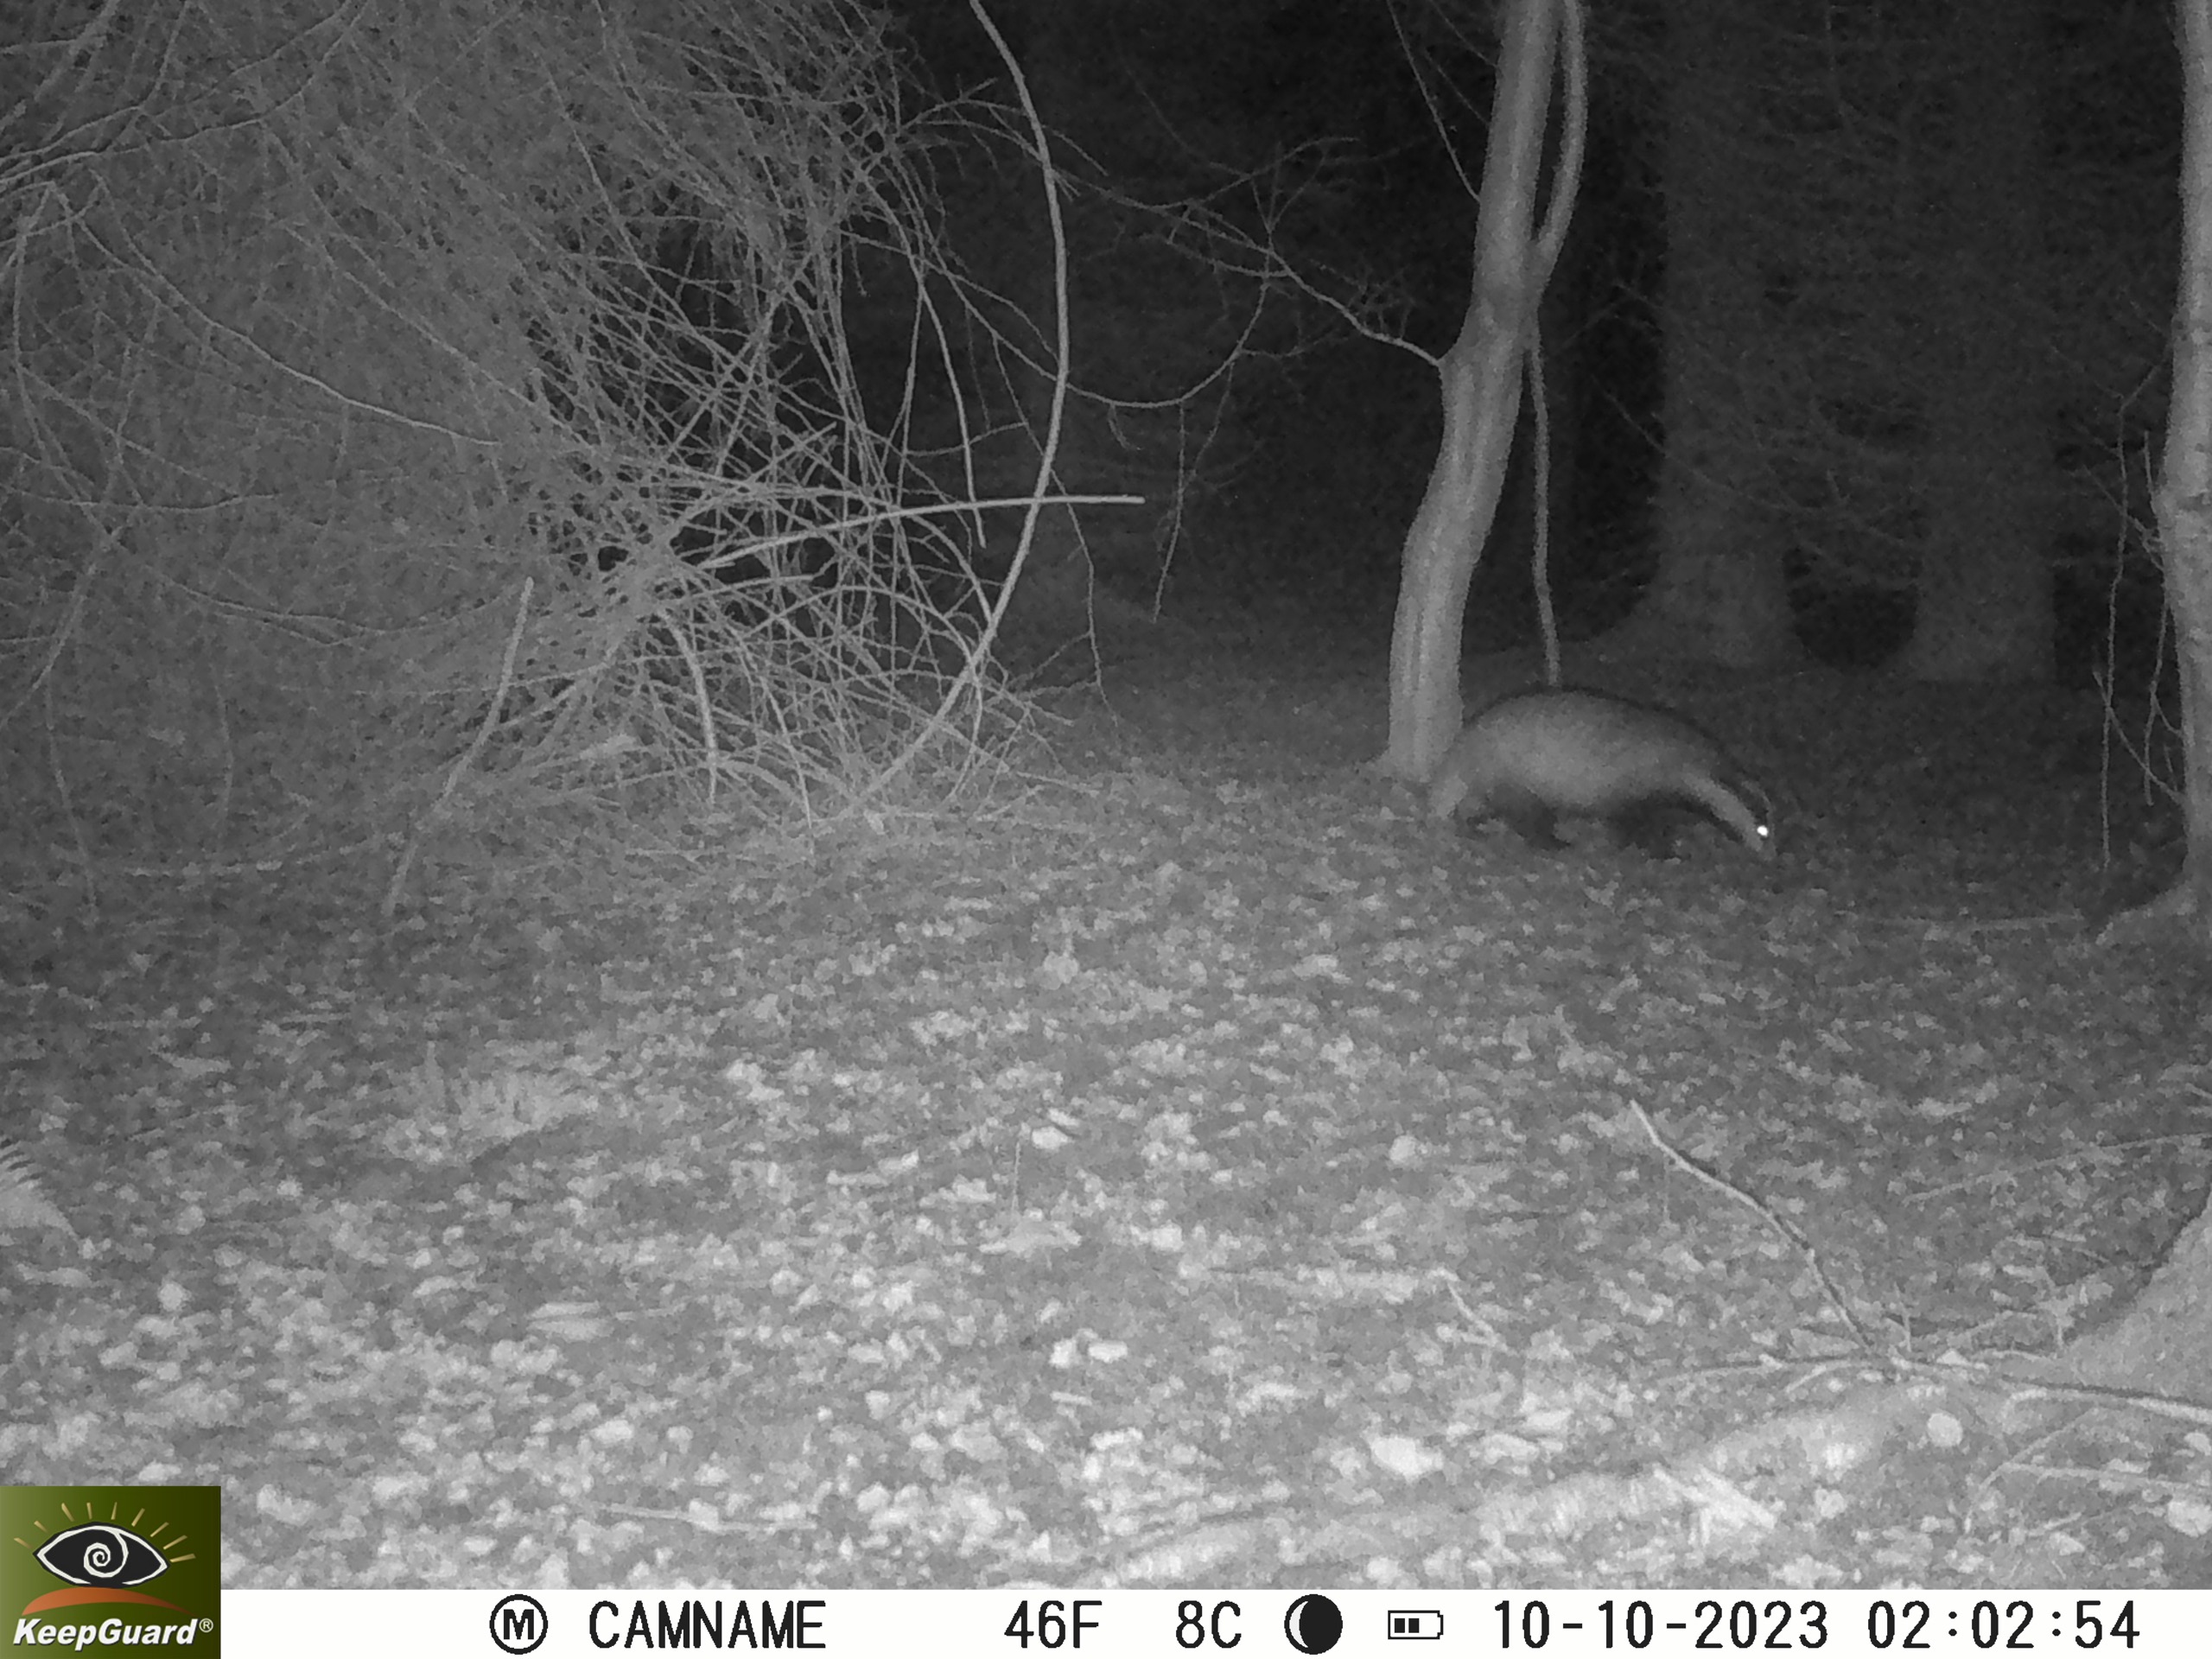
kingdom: Animalia
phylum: Chordata
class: Mammalia
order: Carnivora
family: Mustelidae
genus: Meles
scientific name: Meles meles
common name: Grævling
